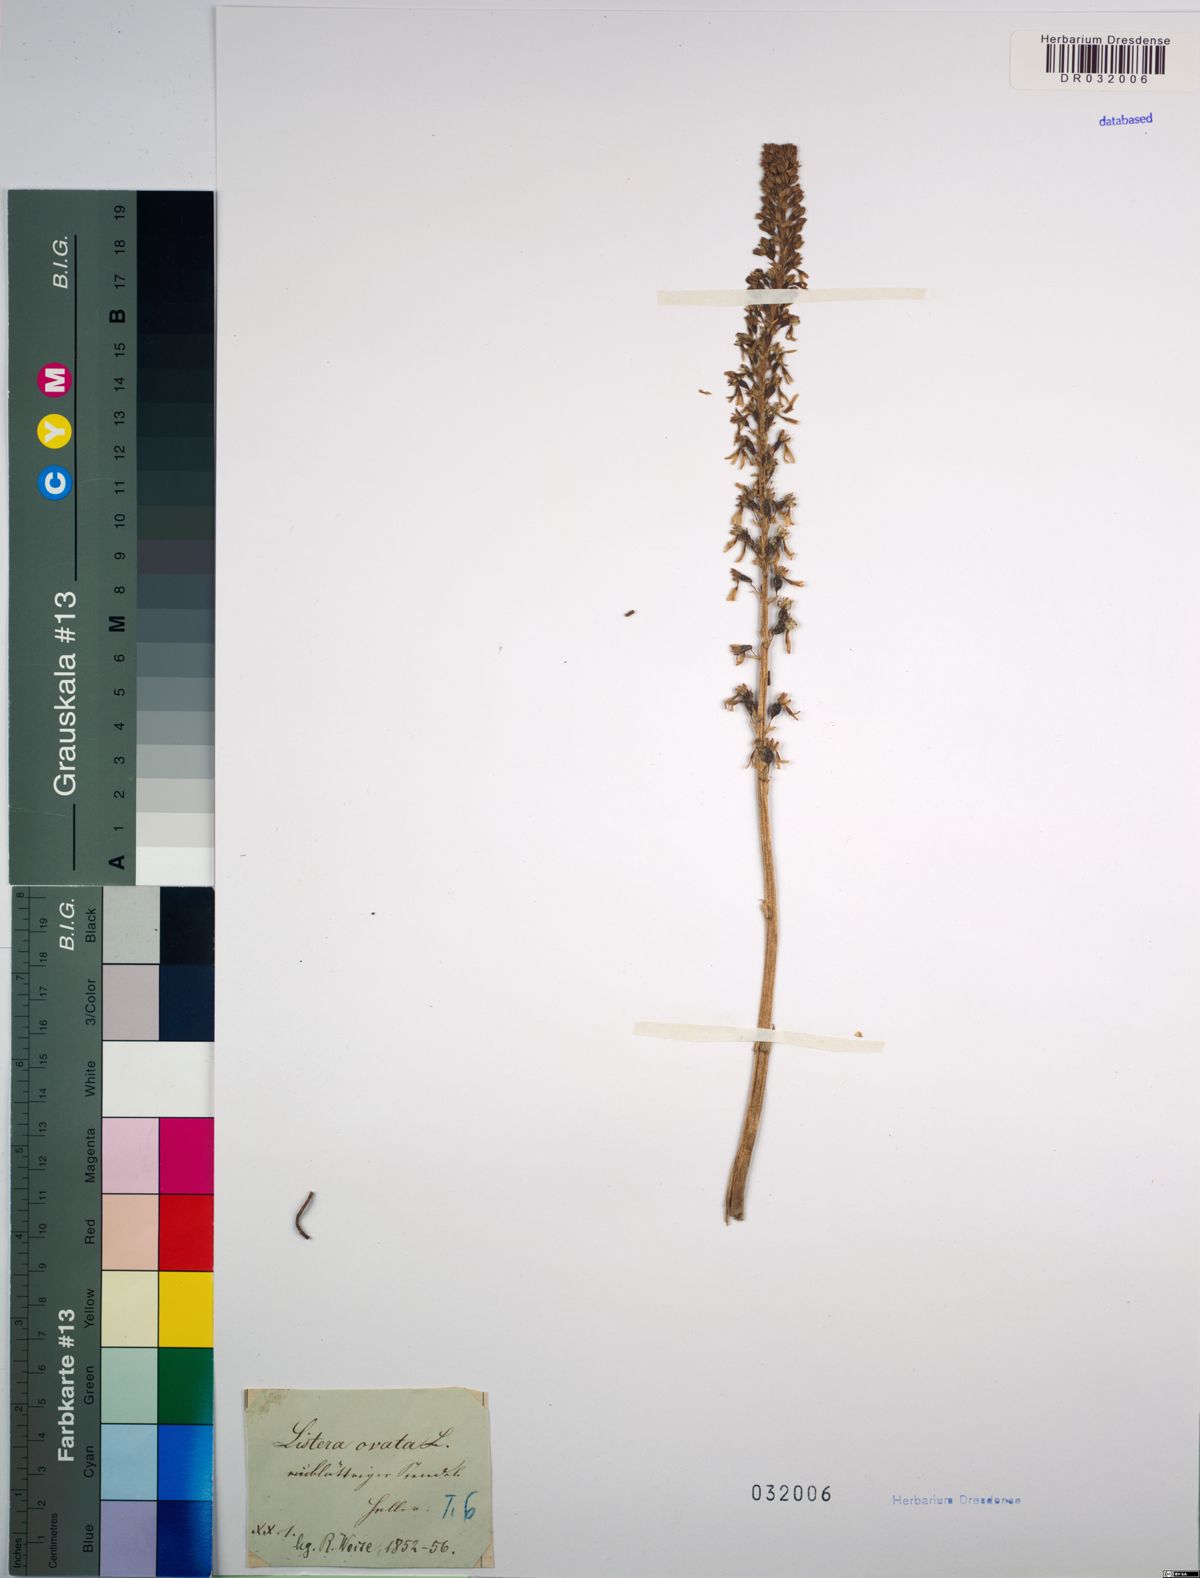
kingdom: Plantae
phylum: Tracheophyta
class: Liliopsida
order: Asparagales
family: Orchidaceae
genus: Neottia
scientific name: Neottia ovata
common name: Common twayblade
